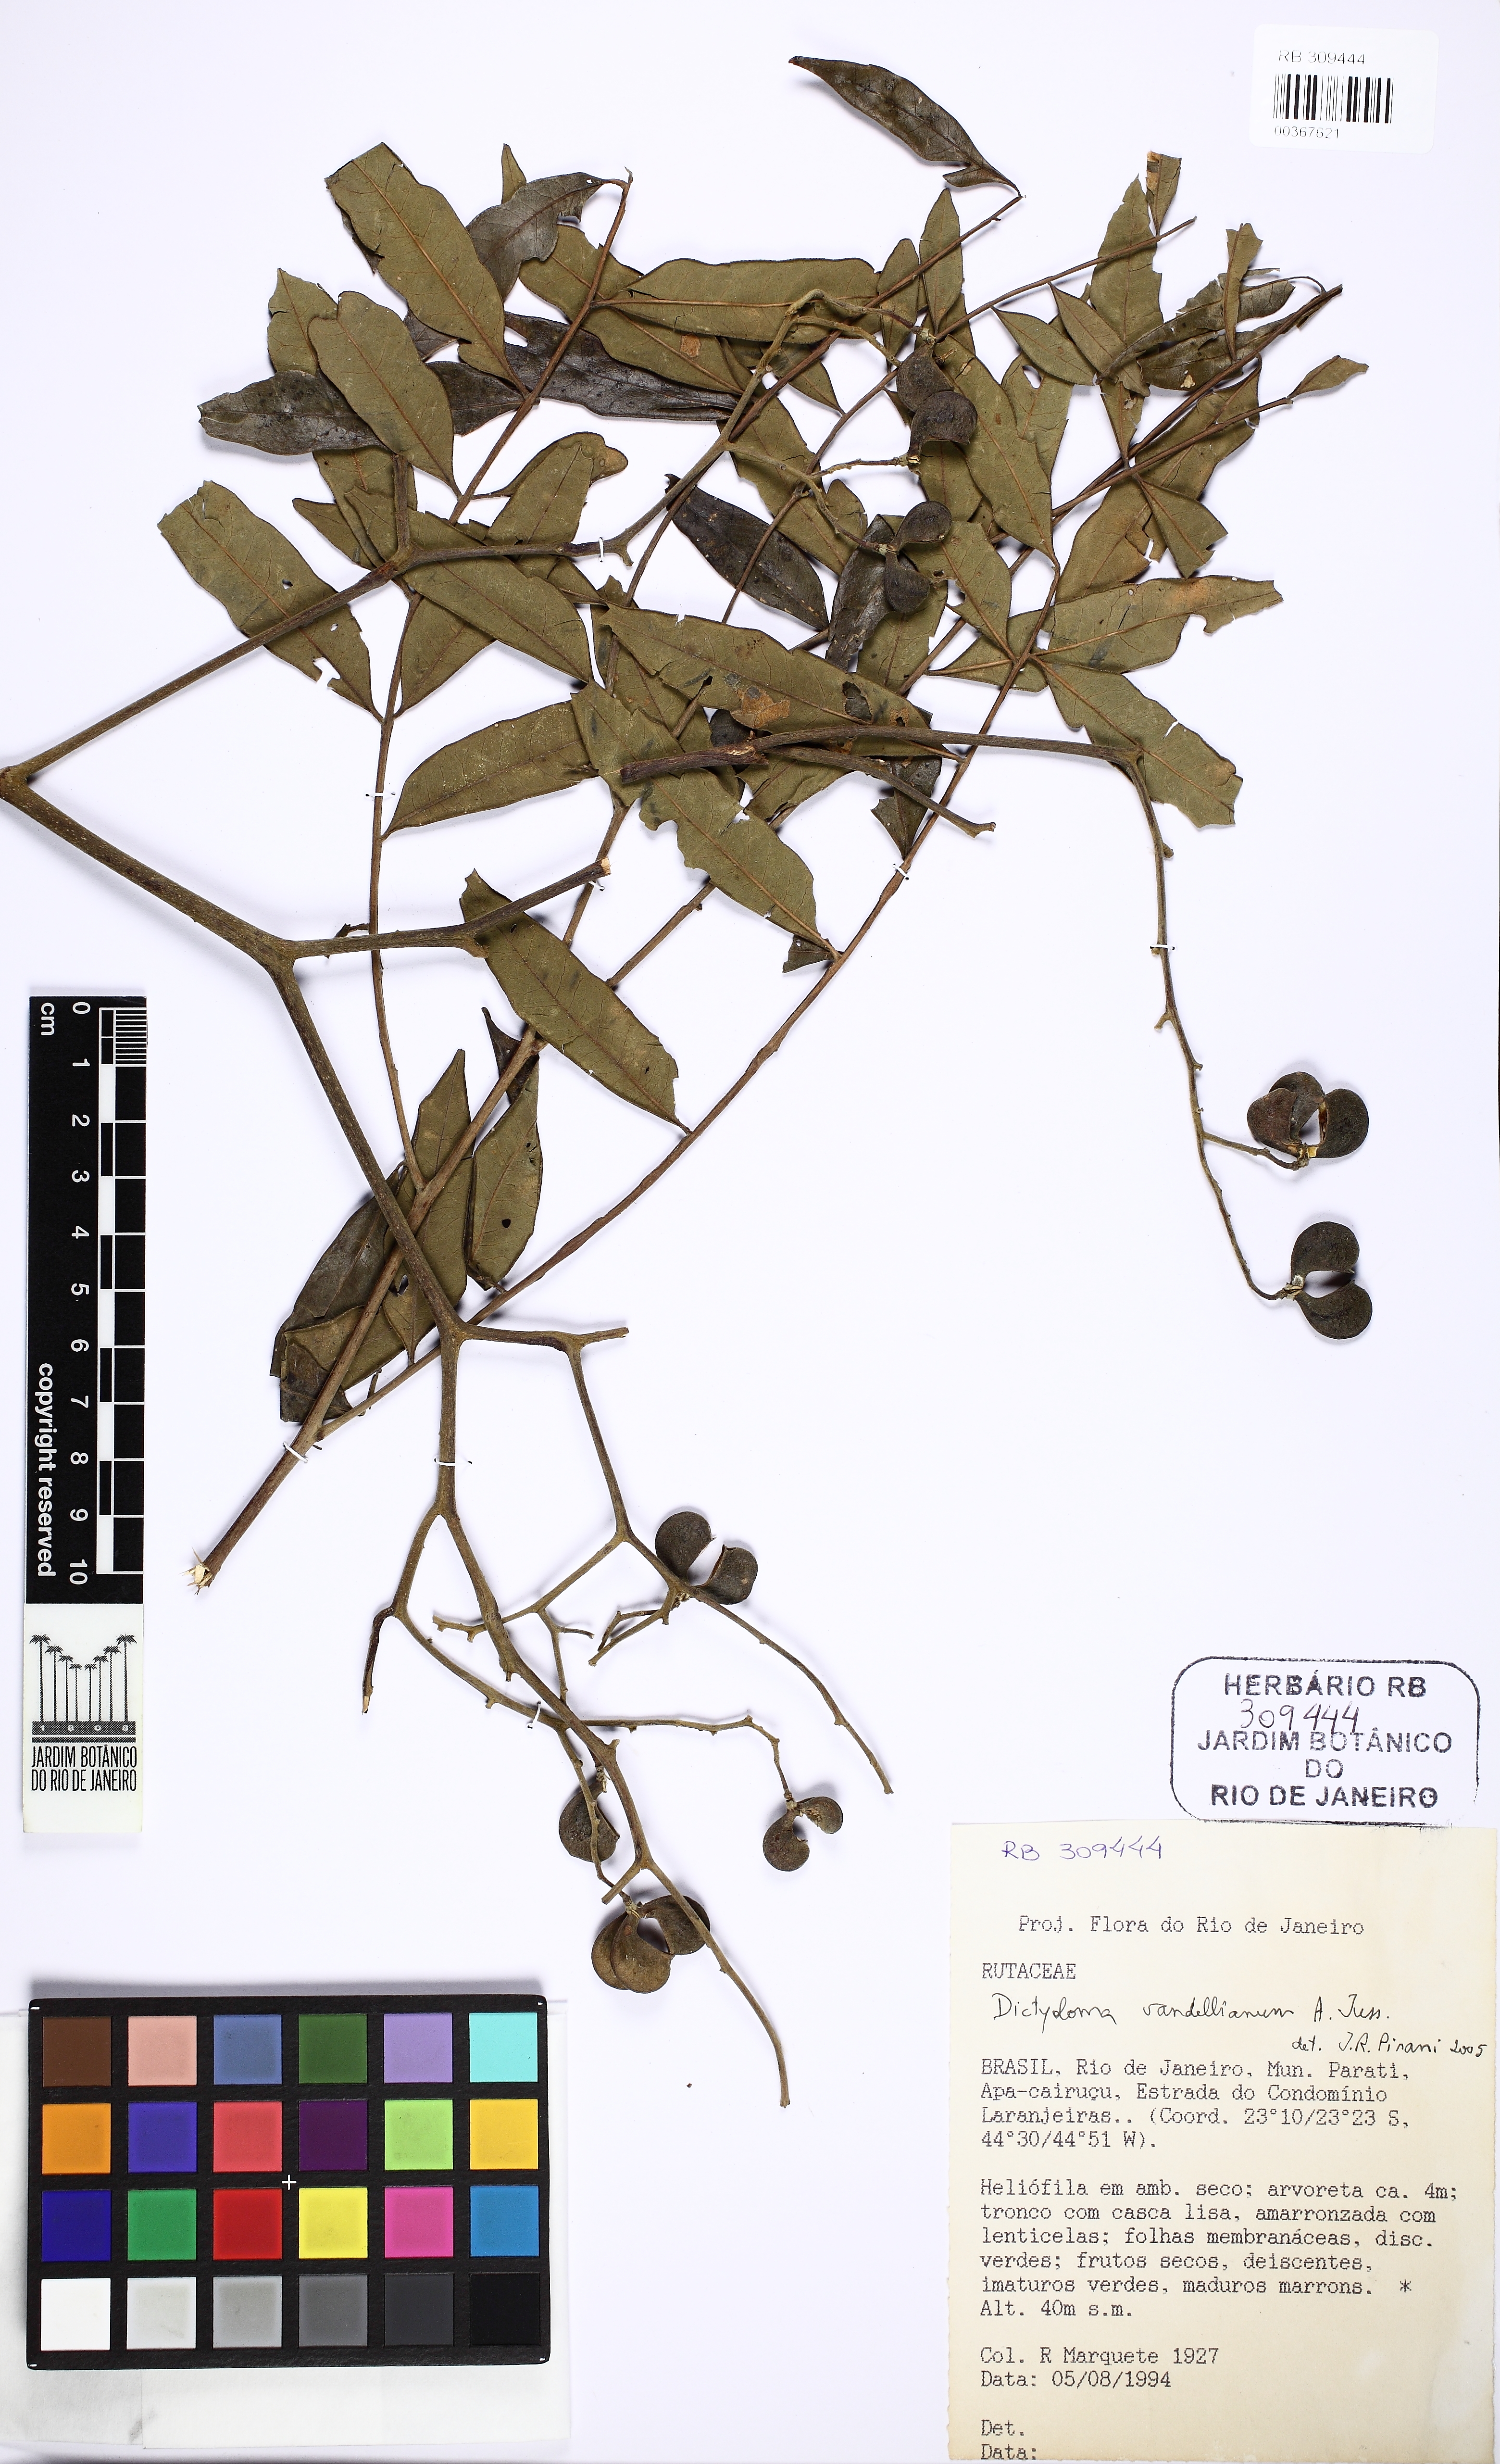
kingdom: Plantae
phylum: Tracheophyta
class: Magnoliopsida
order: Sapindales
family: Rutaceae
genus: Dictyoloma
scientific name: Dictyoloma vandellianum
